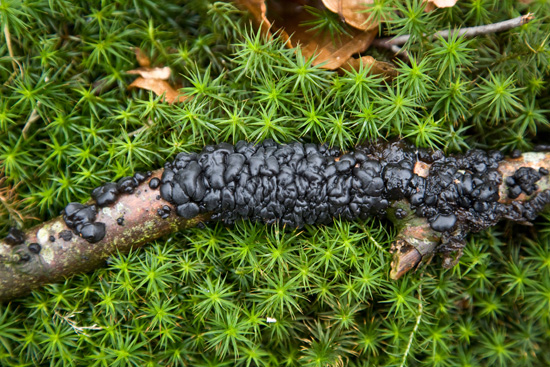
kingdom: Fungi
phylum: Basidiomycota
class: Agaricomycetes
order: Auriculariales
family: Auriculariaceae
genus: Exidia
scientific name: Exidia nigricans
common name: almindelig bævretop
